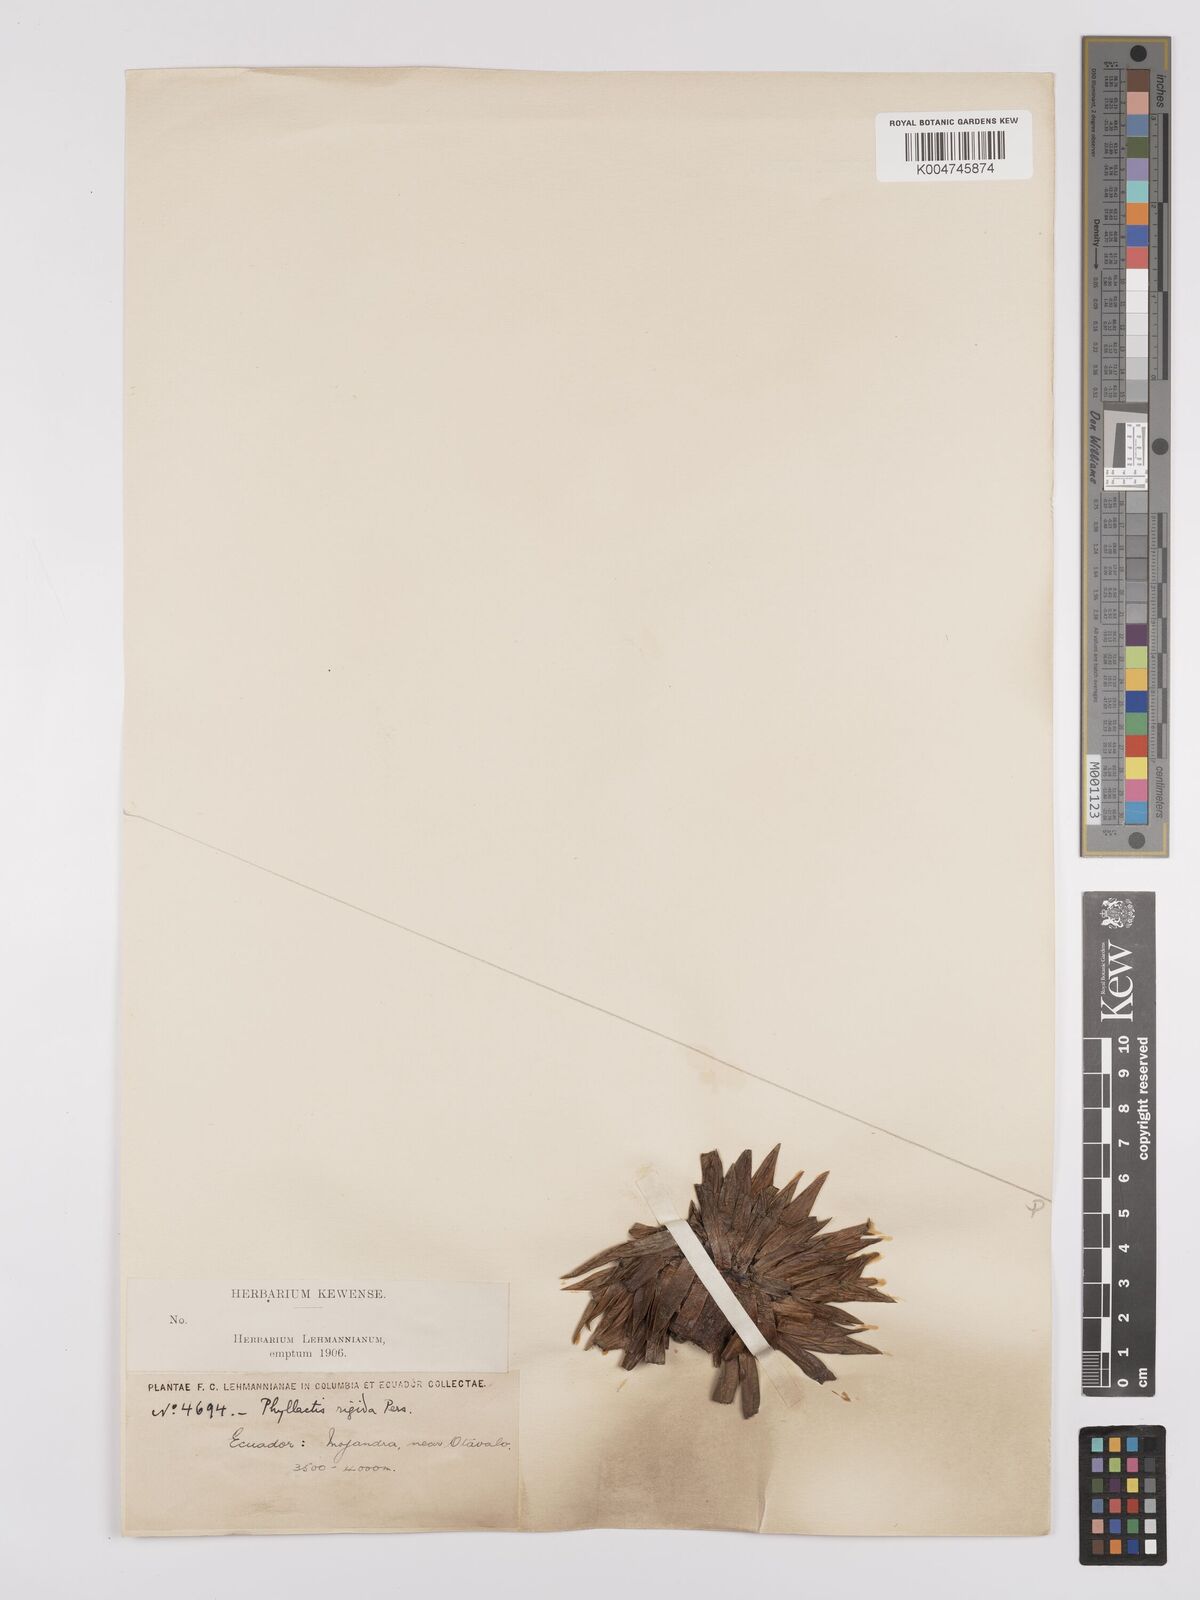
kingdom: Plantae
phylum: Tracheophyta
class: Magnoliopsida
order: Dipsacales
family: Caprifoliaceae
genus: Valeriana
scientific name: Valeriana rigida
